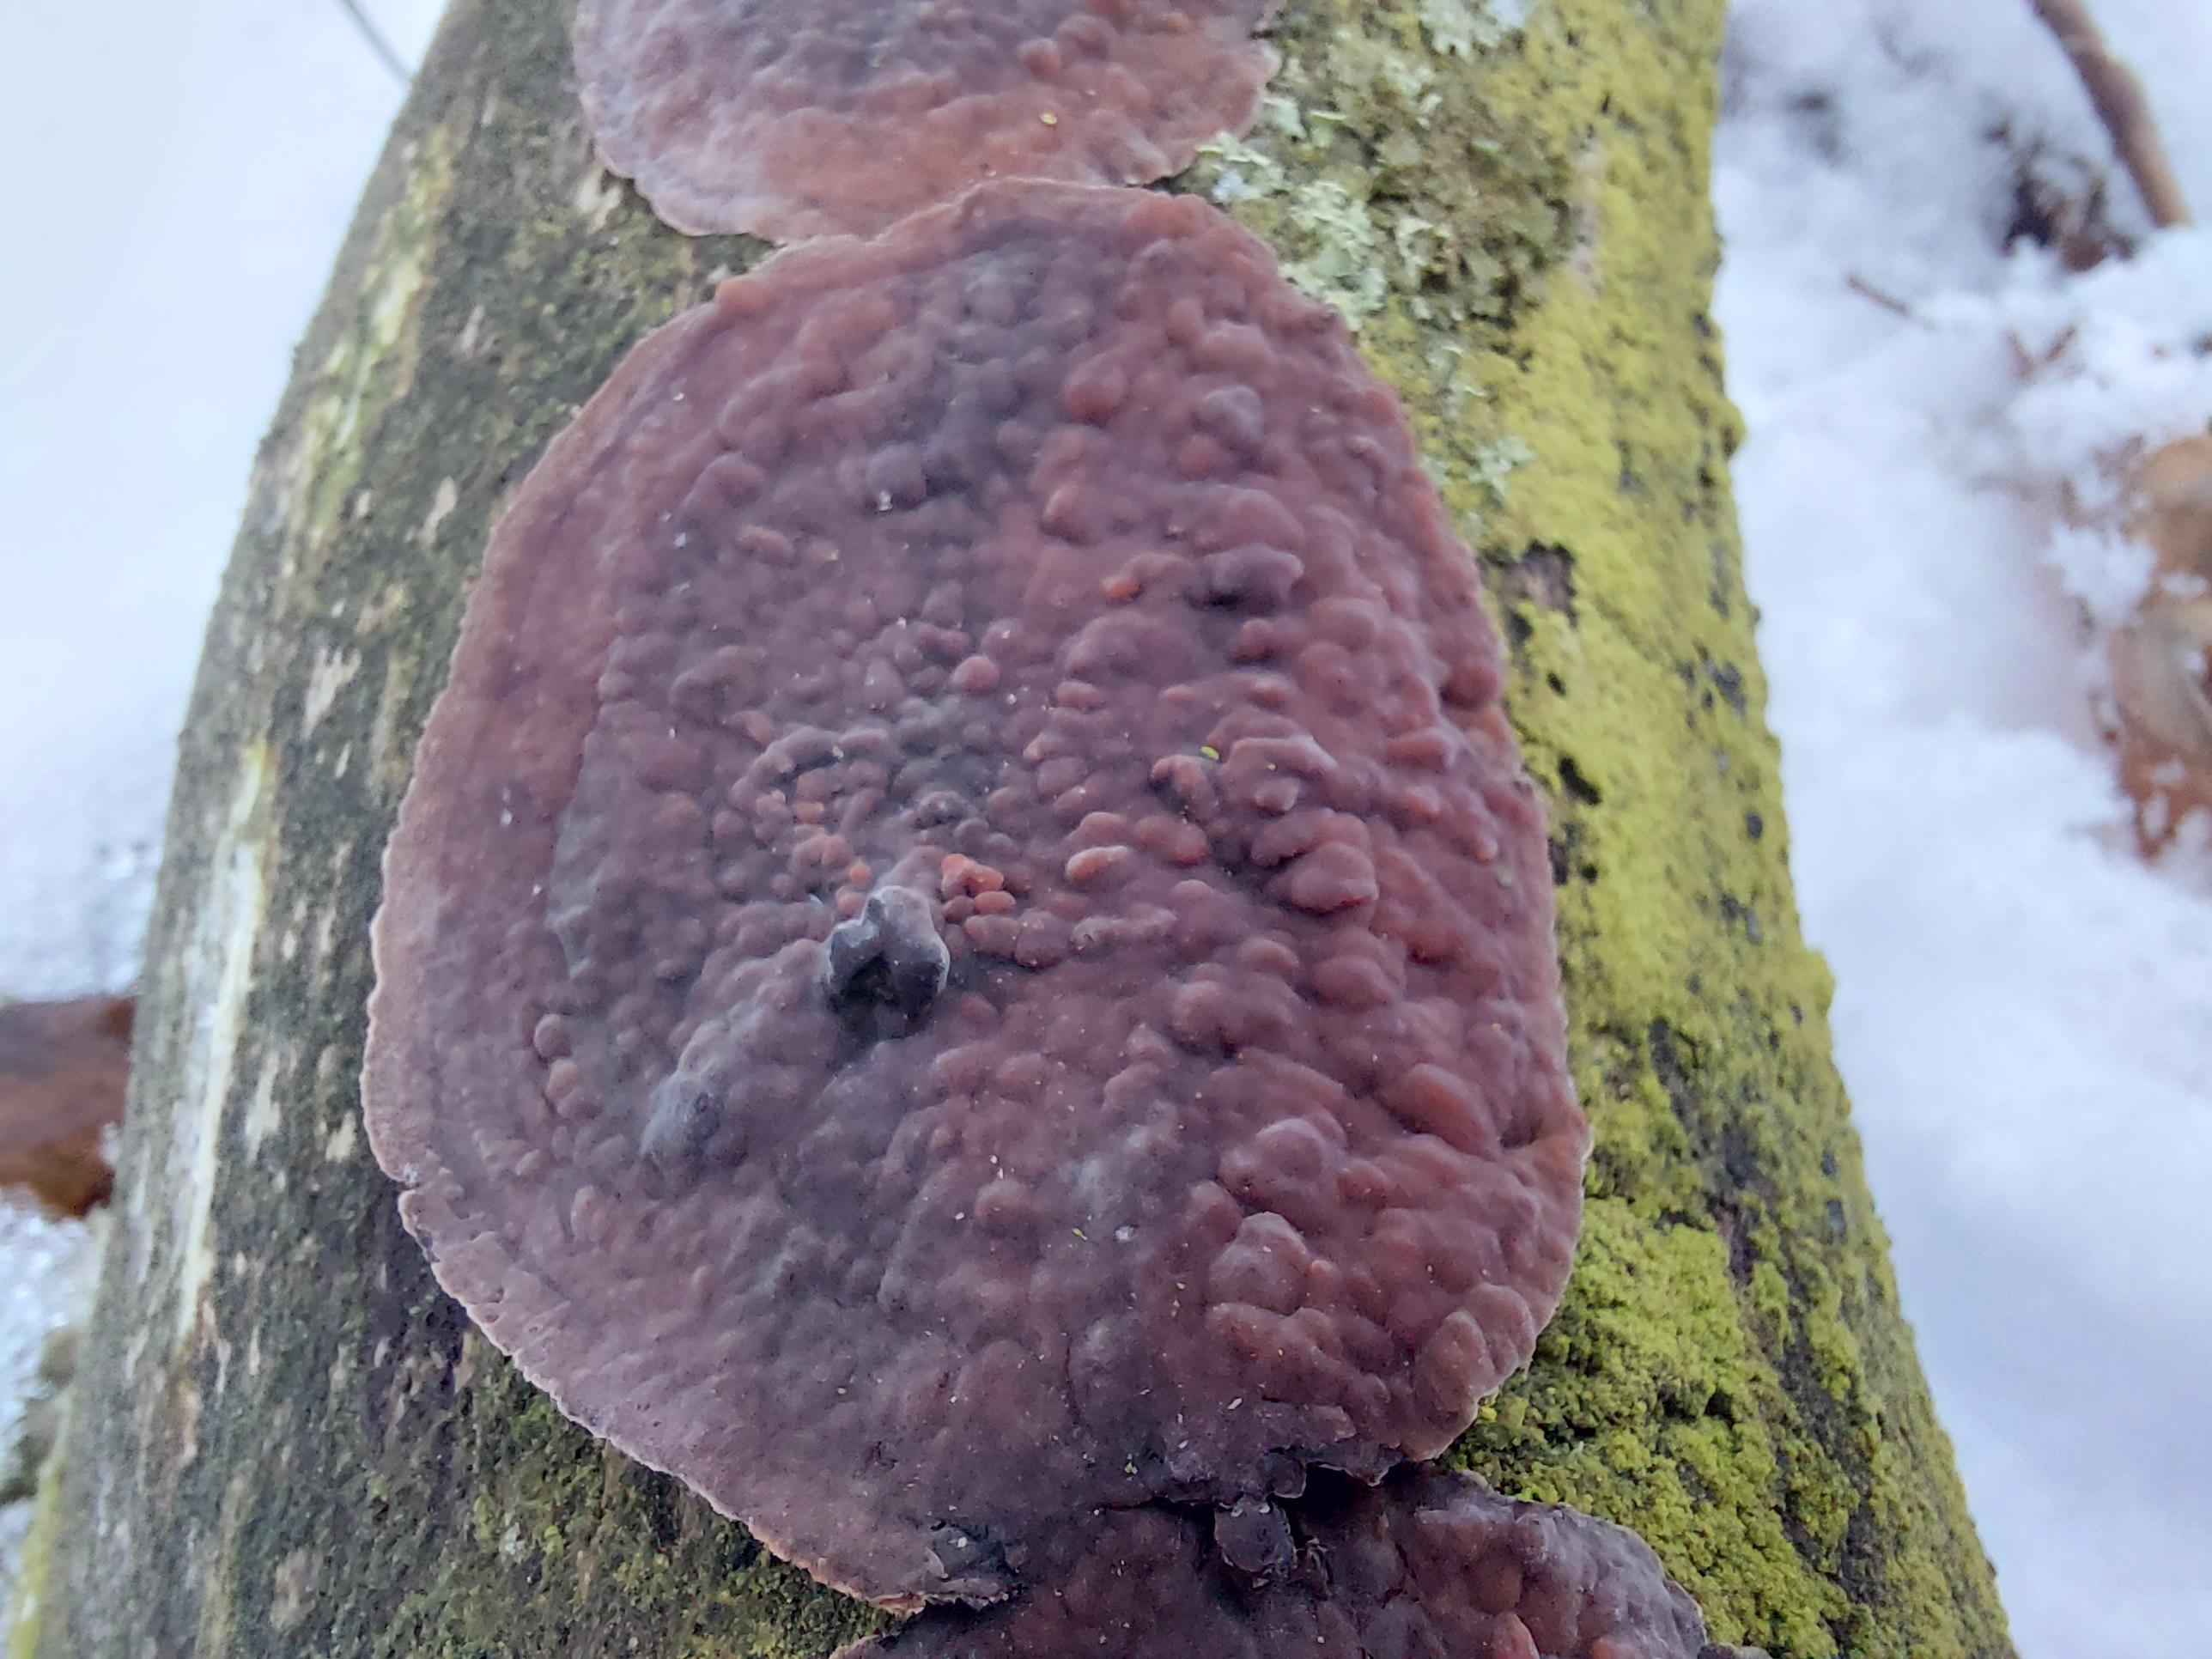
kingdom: Fungi
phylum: Basidiomycota
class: Agaricomycetes
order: Russulales
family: Peniophoraceae
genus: Peniophora
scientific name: Peniophora quercina
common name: ege-voksskind
